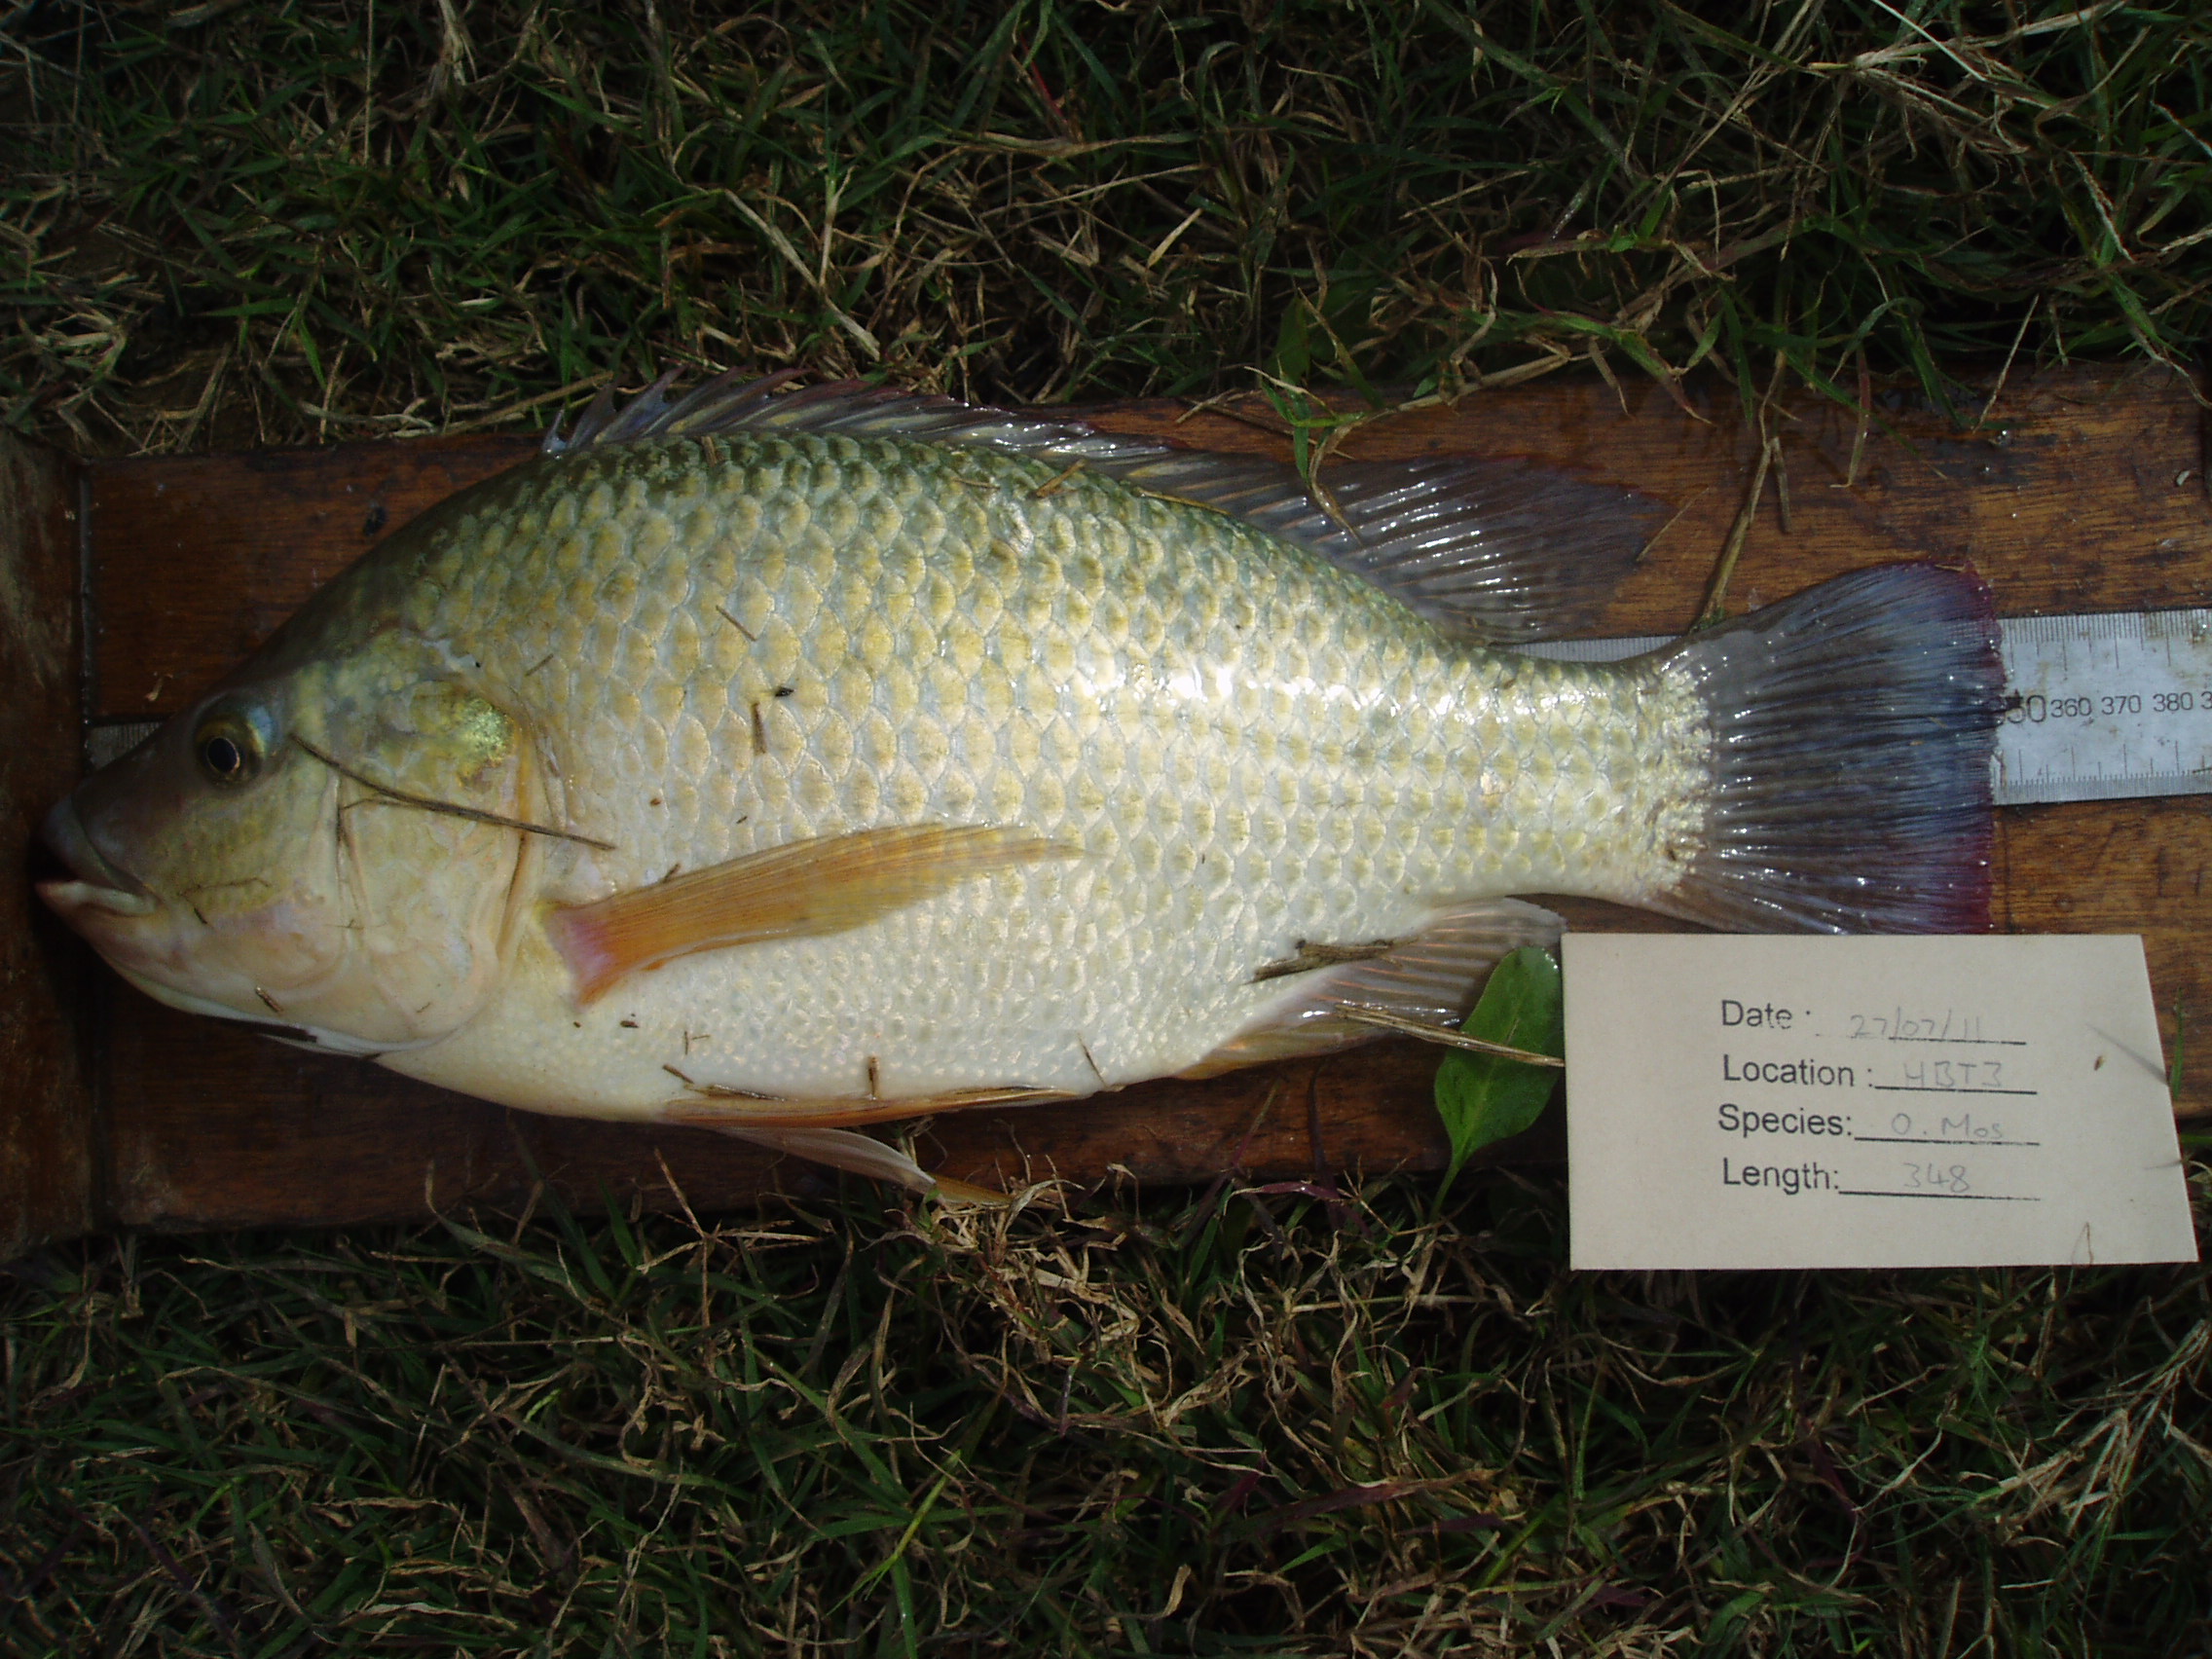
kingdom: Animalia
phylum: Chordata
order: Perciformes
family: Cichlidae
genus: Oreochromis
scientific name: Oreochromis mossambicus
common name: Mozambique tilapia
